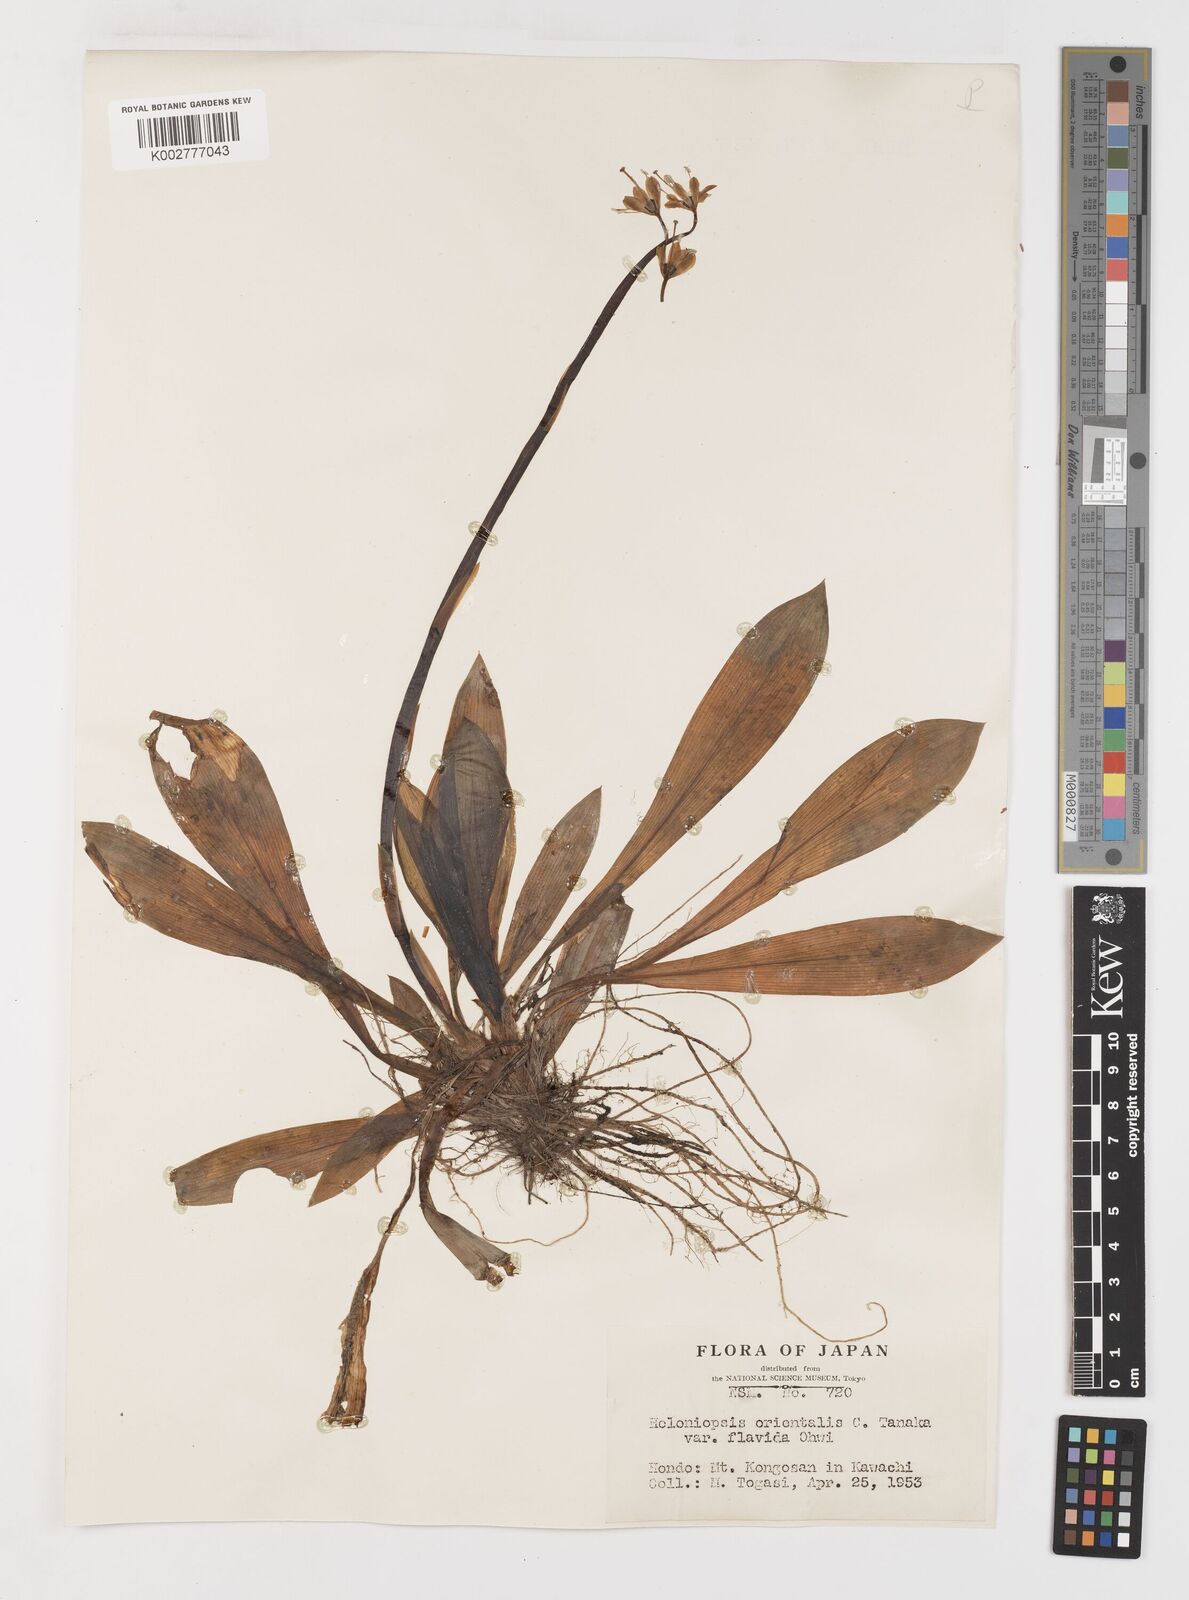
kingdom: Plantae
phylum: Tracheophyta
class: Liliopsida
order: Liliales
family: Melanthiaceae
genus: Helonias
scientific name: Helonias orientalis
